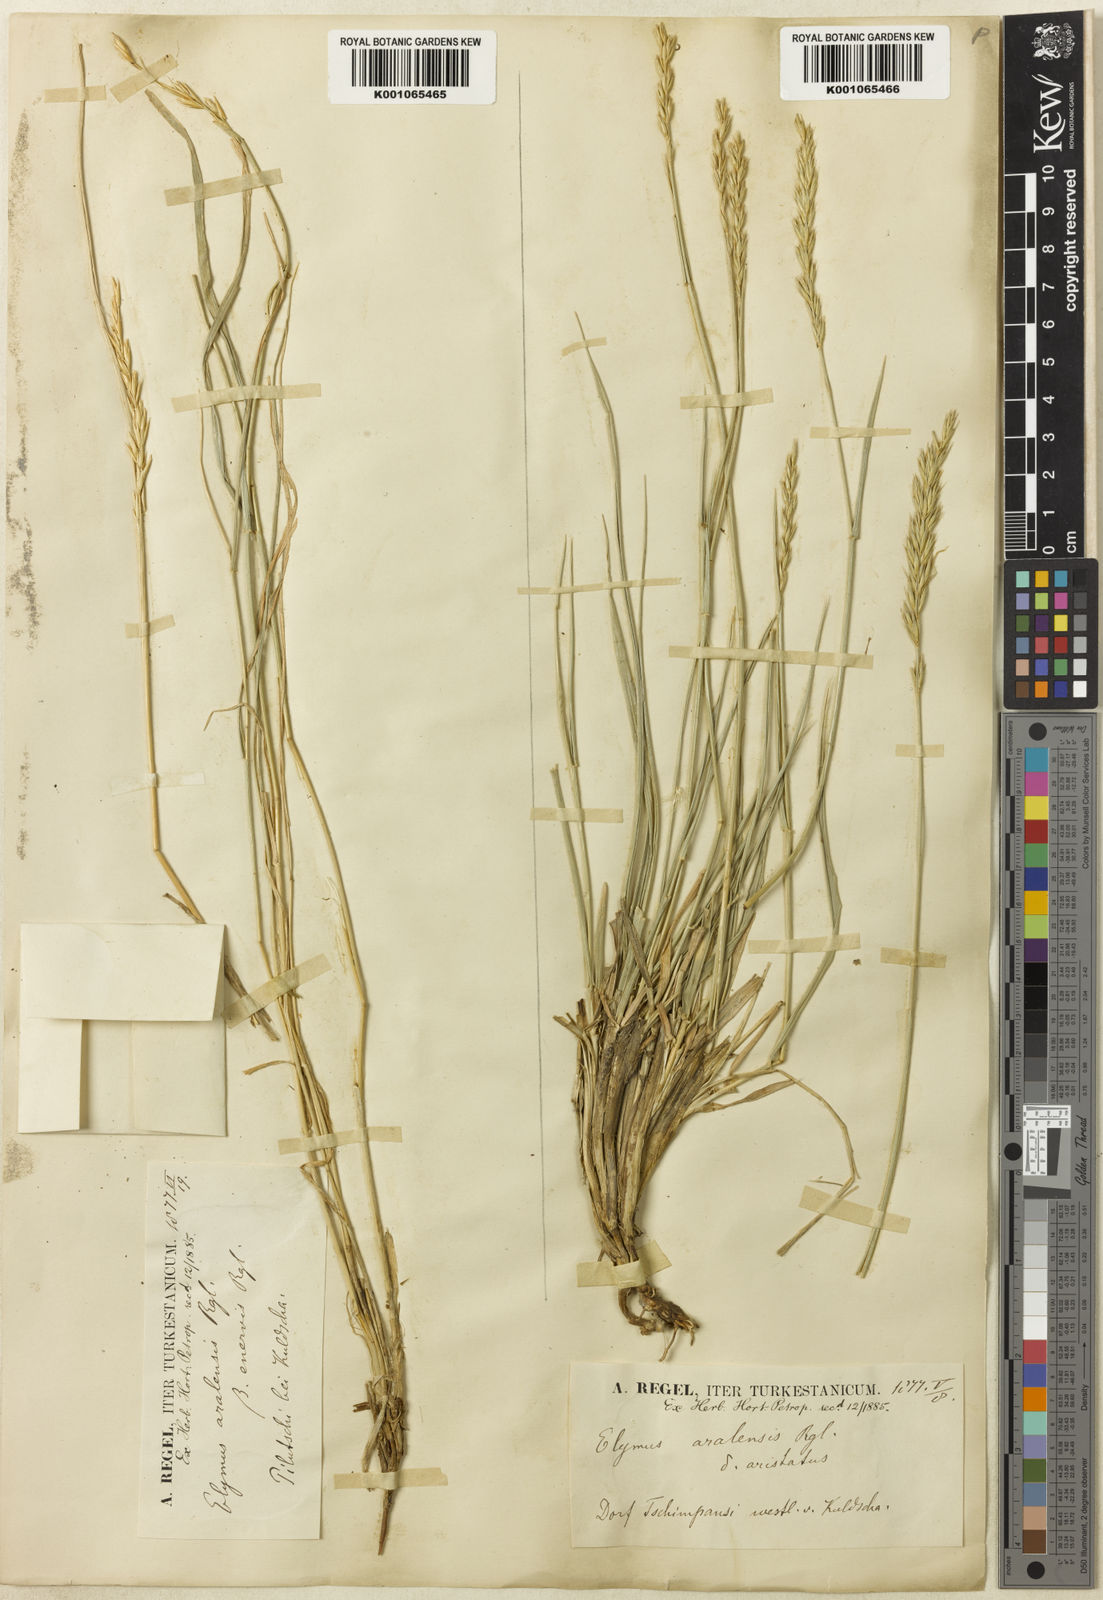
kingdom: Plantae
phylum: Tracheophyta
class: Liliopsida
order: Poales
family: Poaceae
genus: Leymus
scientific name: Leymus multicaulis
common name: Manystem wildrye
